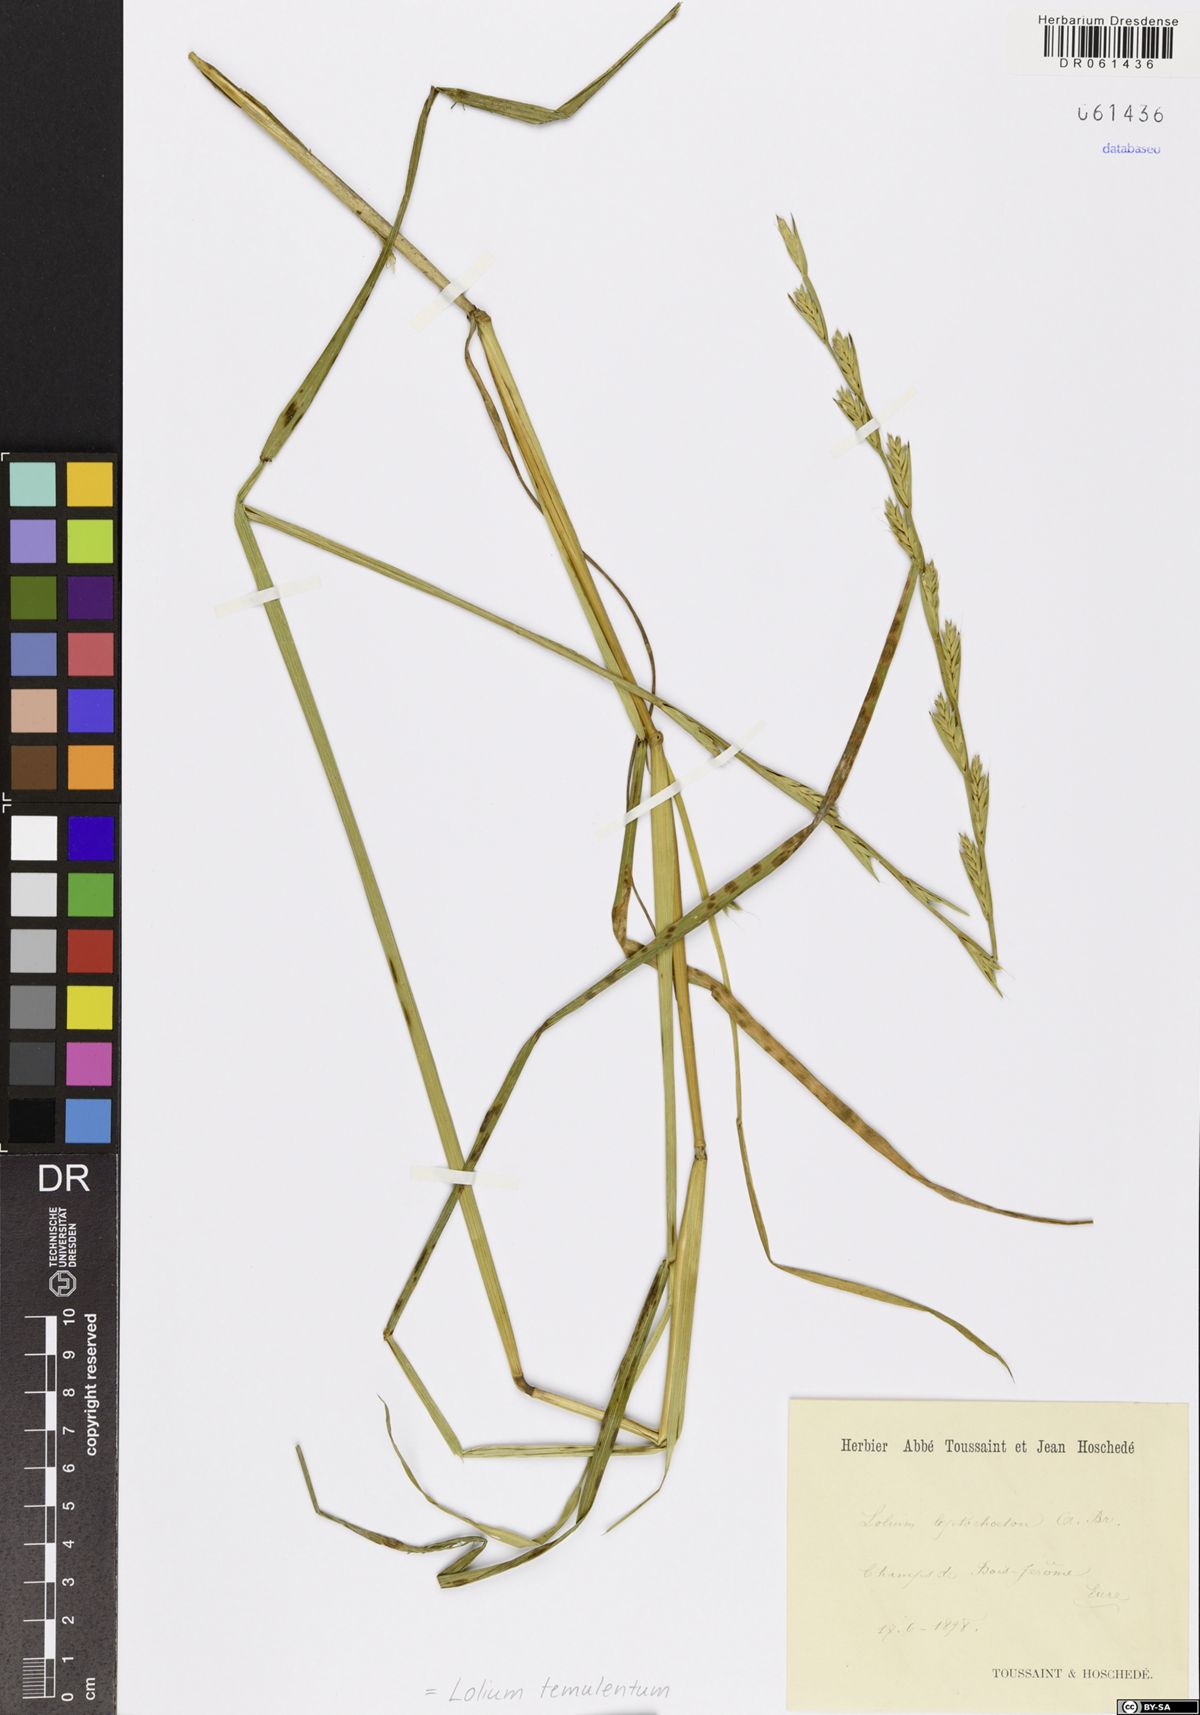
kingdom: Plantae
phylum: Tracheophyta
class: Liliopsida
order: Poales
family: Poaceae
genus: Lolium
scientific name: Lolium temulentum
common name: Darnel
